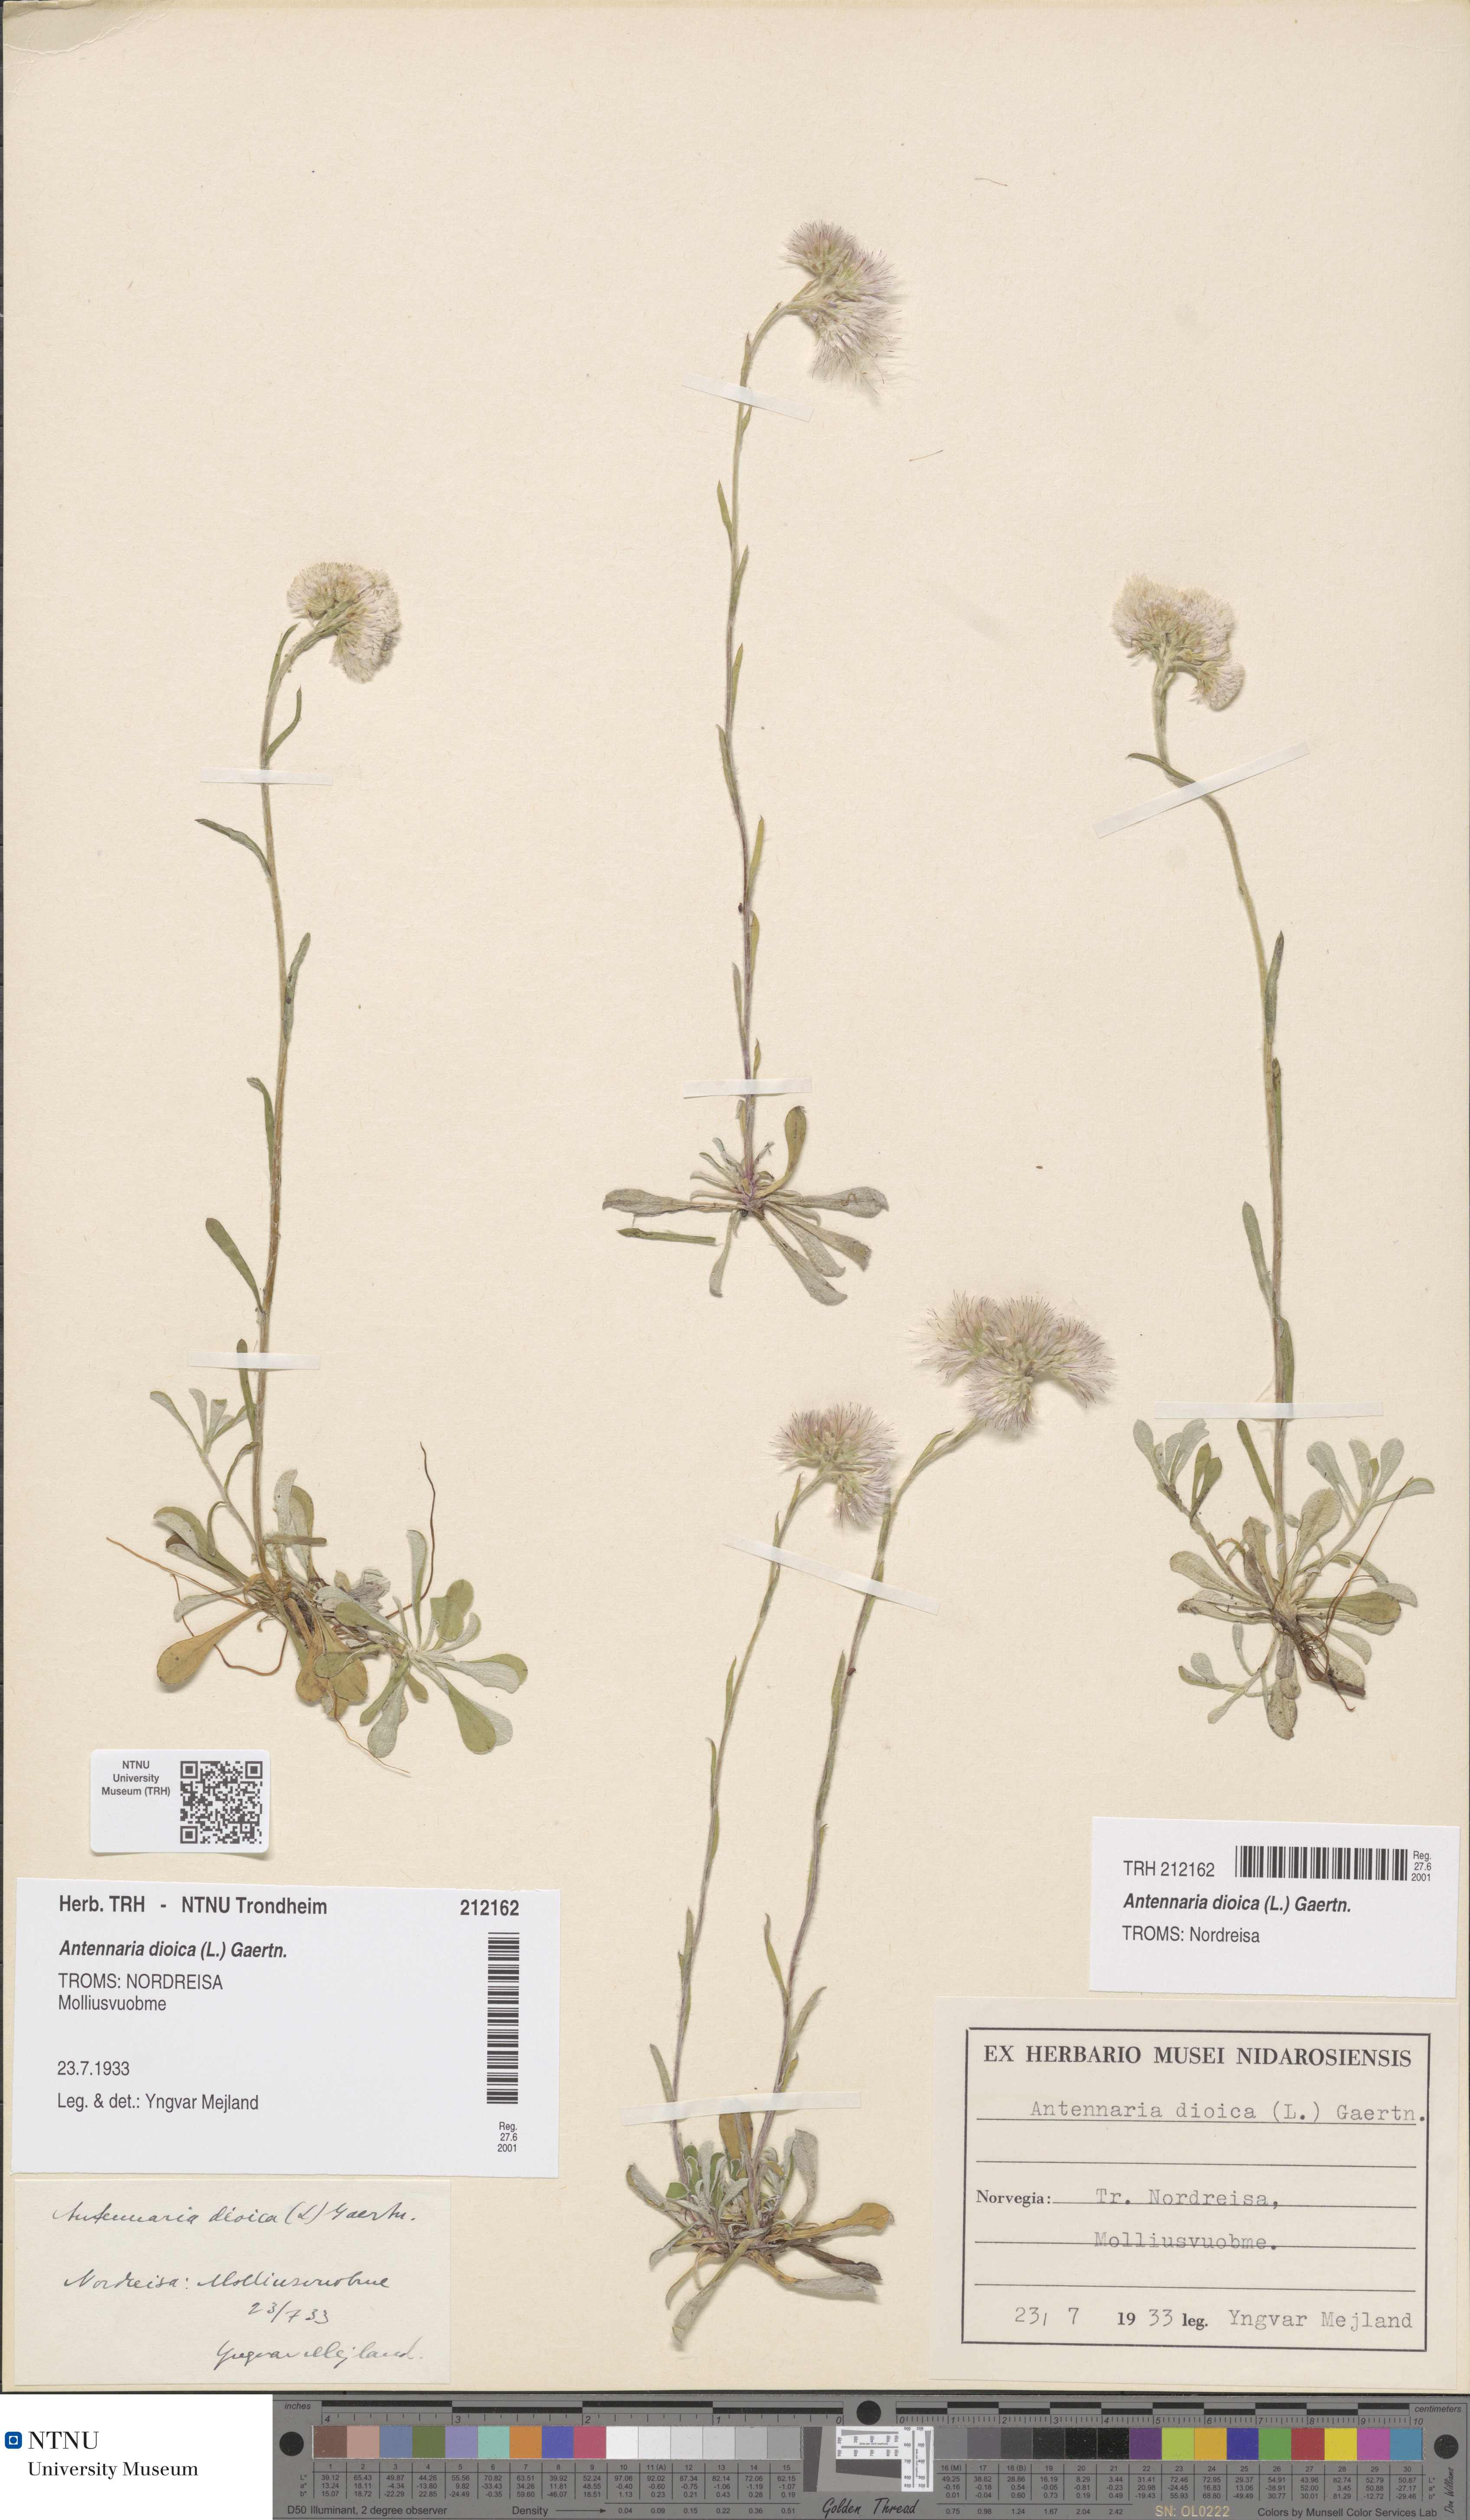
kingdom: Plantae
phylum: Tracheophyta
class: Magnoliopsida
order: Asterales
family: Asteraceae
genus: Antennaria
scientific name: Antennaria dioica
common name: Mountain everlasting
